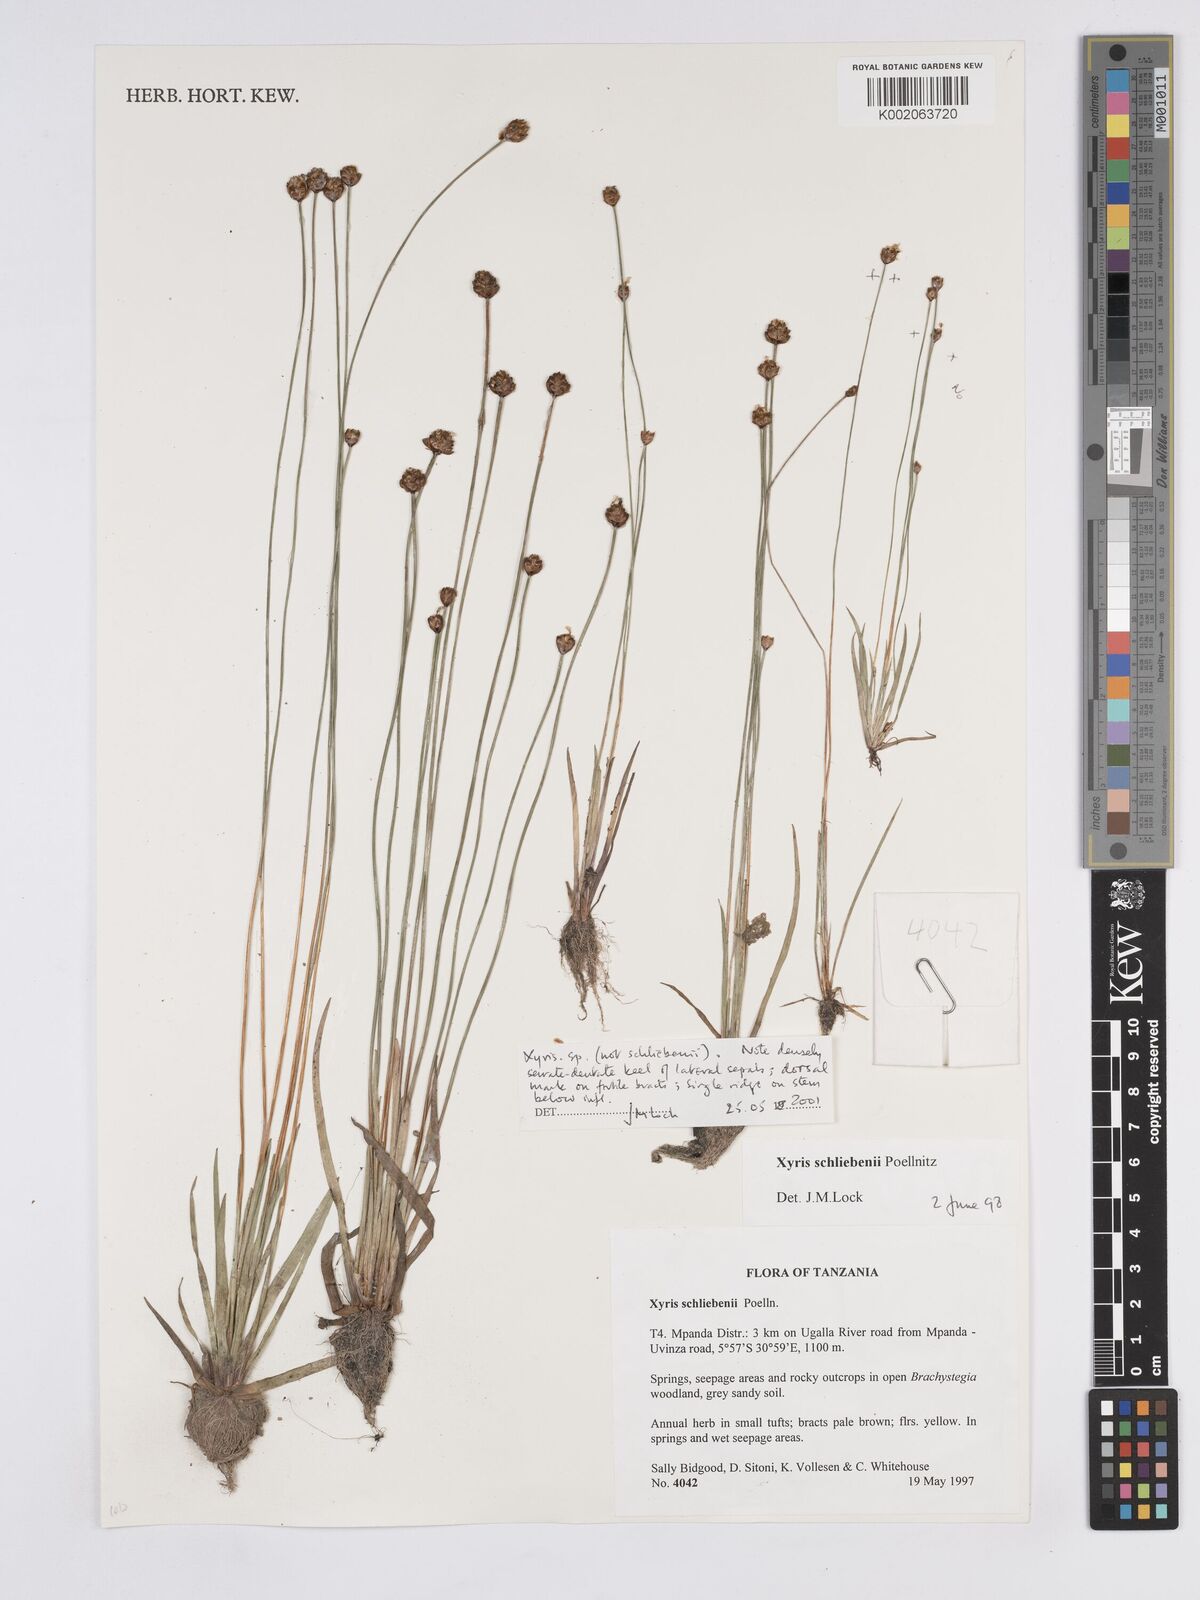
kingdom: Plantae
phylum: Tracheophyta
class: Liliopsida
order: Poales
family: Xyridaceae
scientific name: Xyridaceae
